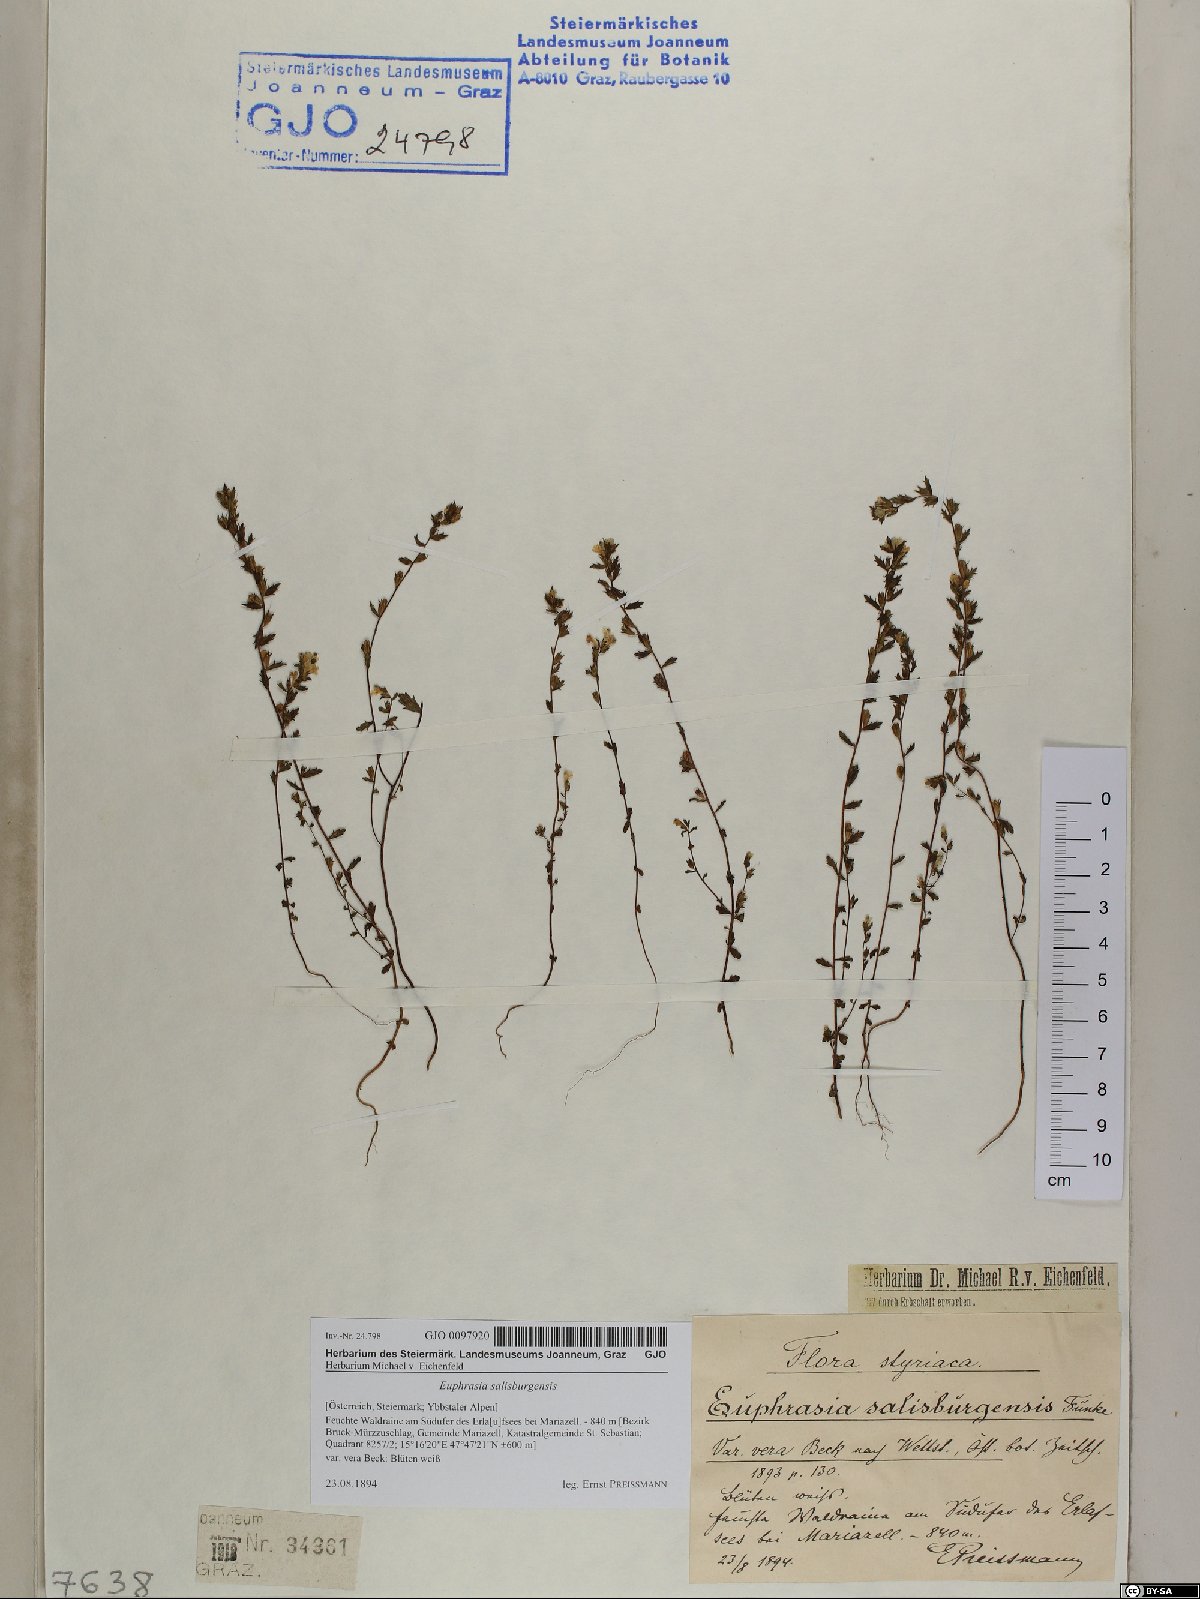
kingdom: Plantae
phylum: Tracheophyta
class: Magnoliopsida
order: Lamiales
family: Orobanchaceae
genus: Euphrasia
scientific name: Euphrasia salisburgensis
